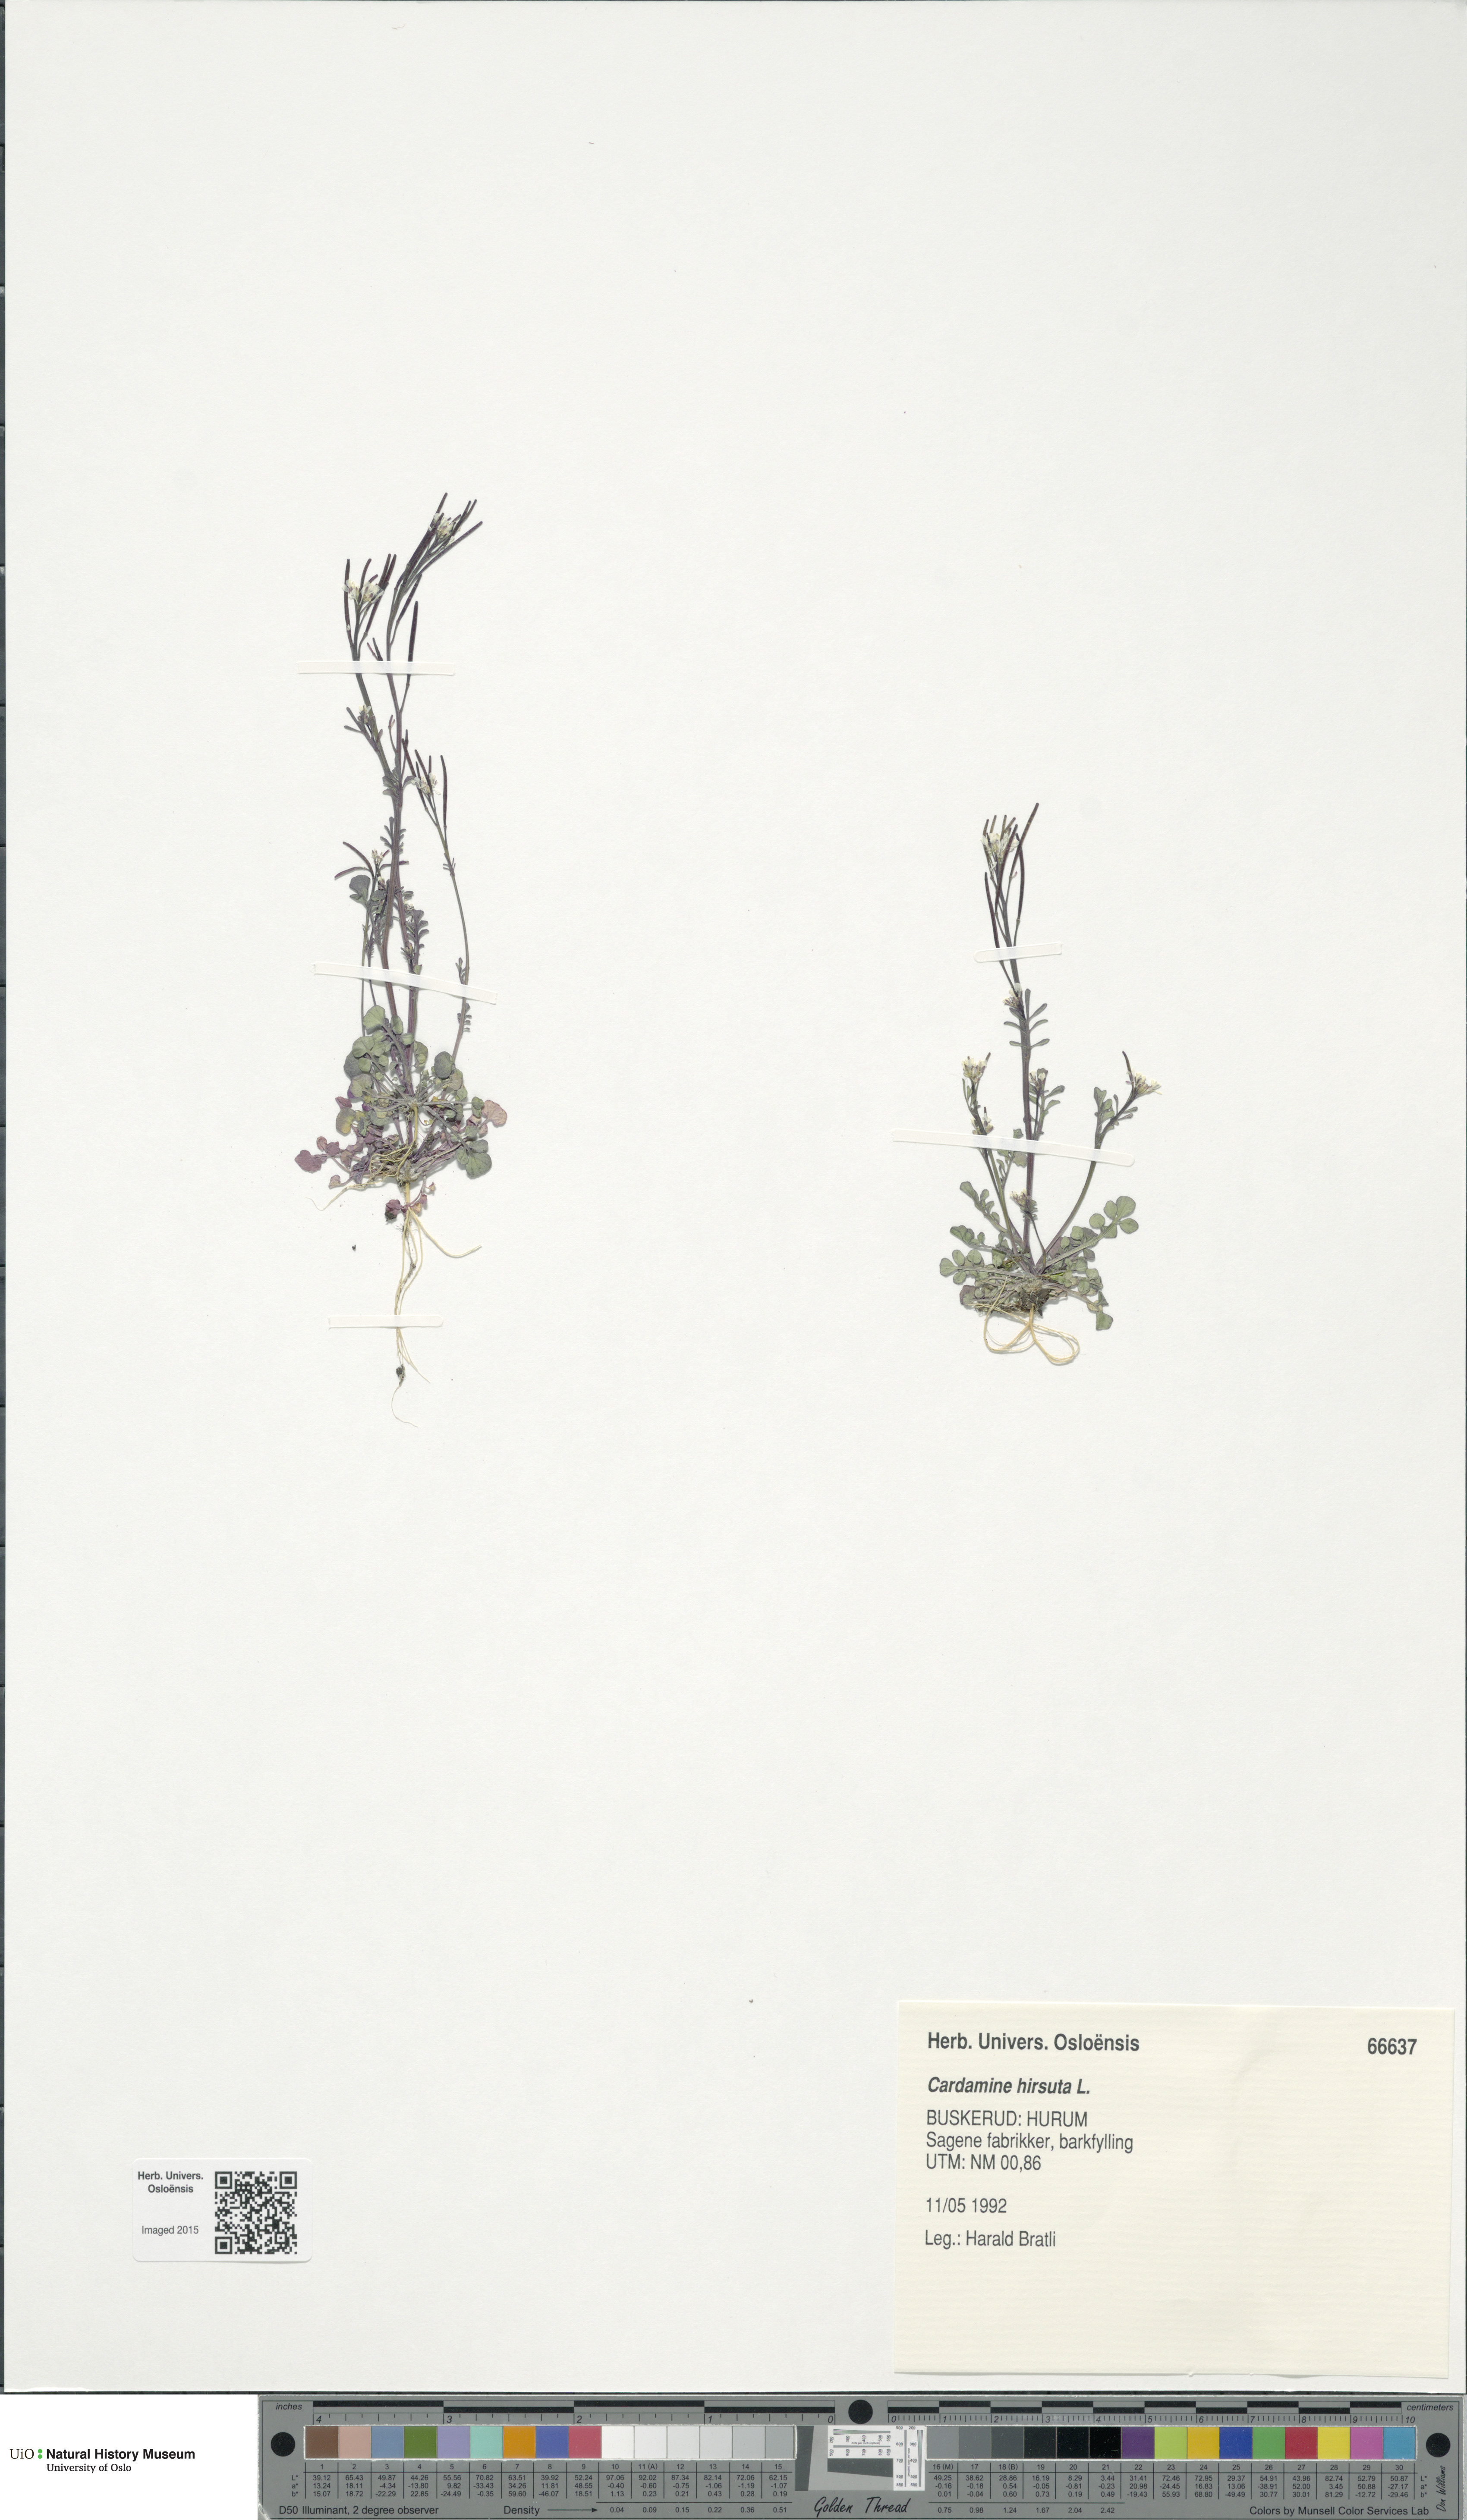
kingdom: Plantae
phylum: Tracheophyta
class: Magnoliopsida
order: Brassicales
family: Brassicaceae
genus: Cardamine
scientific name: Cardamine hirsuta
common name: Hairy bittercress
